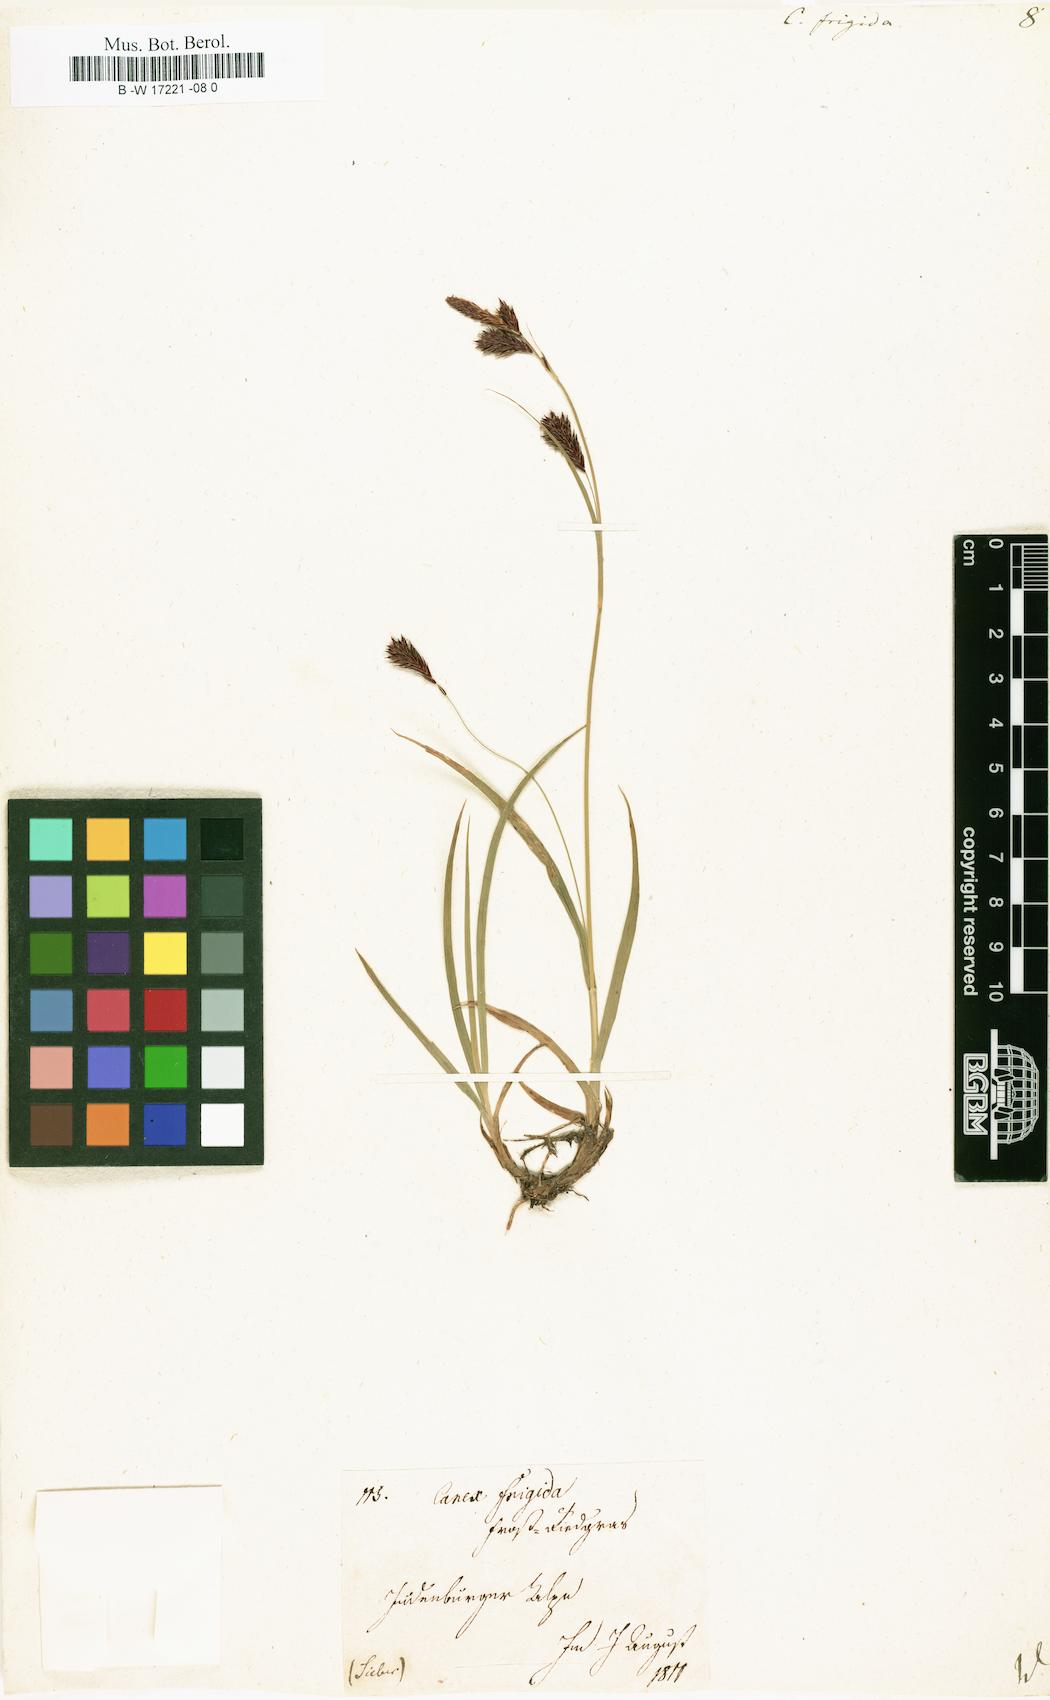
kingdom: Plantae
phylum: Tracheophyta
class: Liliopsida
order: Poales
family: Cyperaceae
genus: Carex
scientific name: Carex frigida
